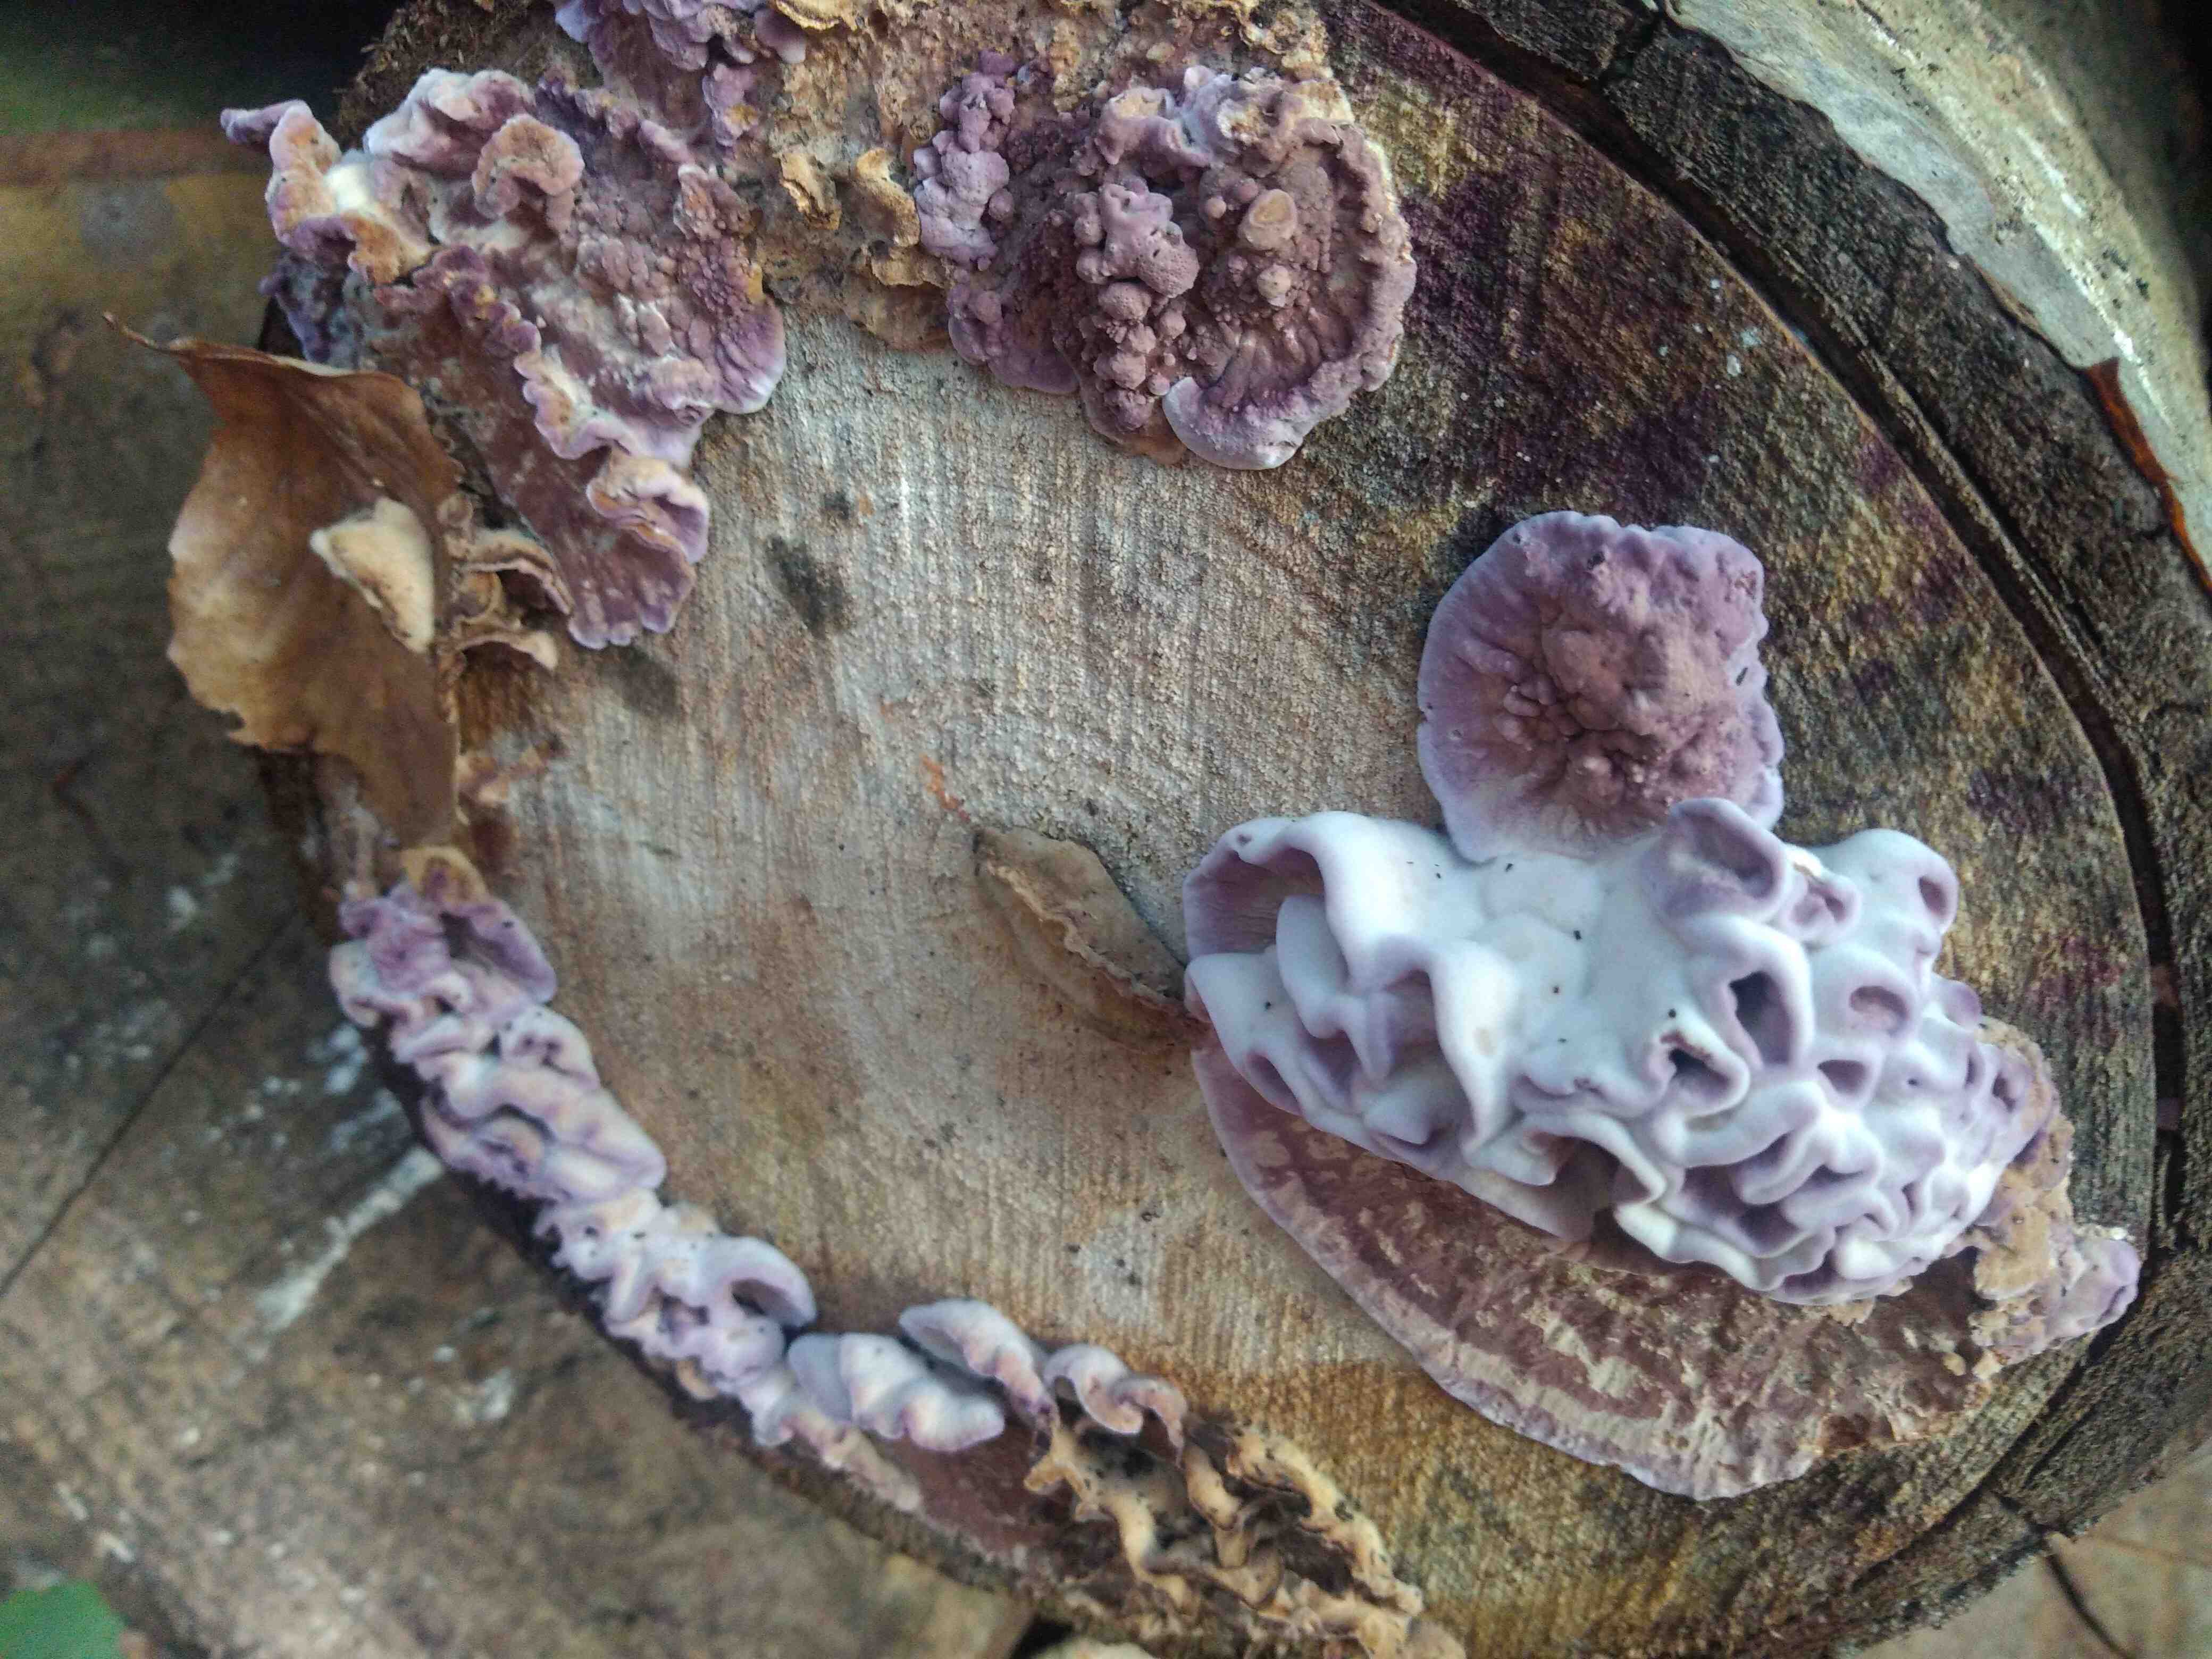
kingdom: Fungi
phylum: Basidiomycota
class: Agaricomycetes
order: Agaricales
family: Cyphellaceae
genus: Chondrostereum
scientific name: Chondrostereum purpureum
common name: purpurlædersvamp
